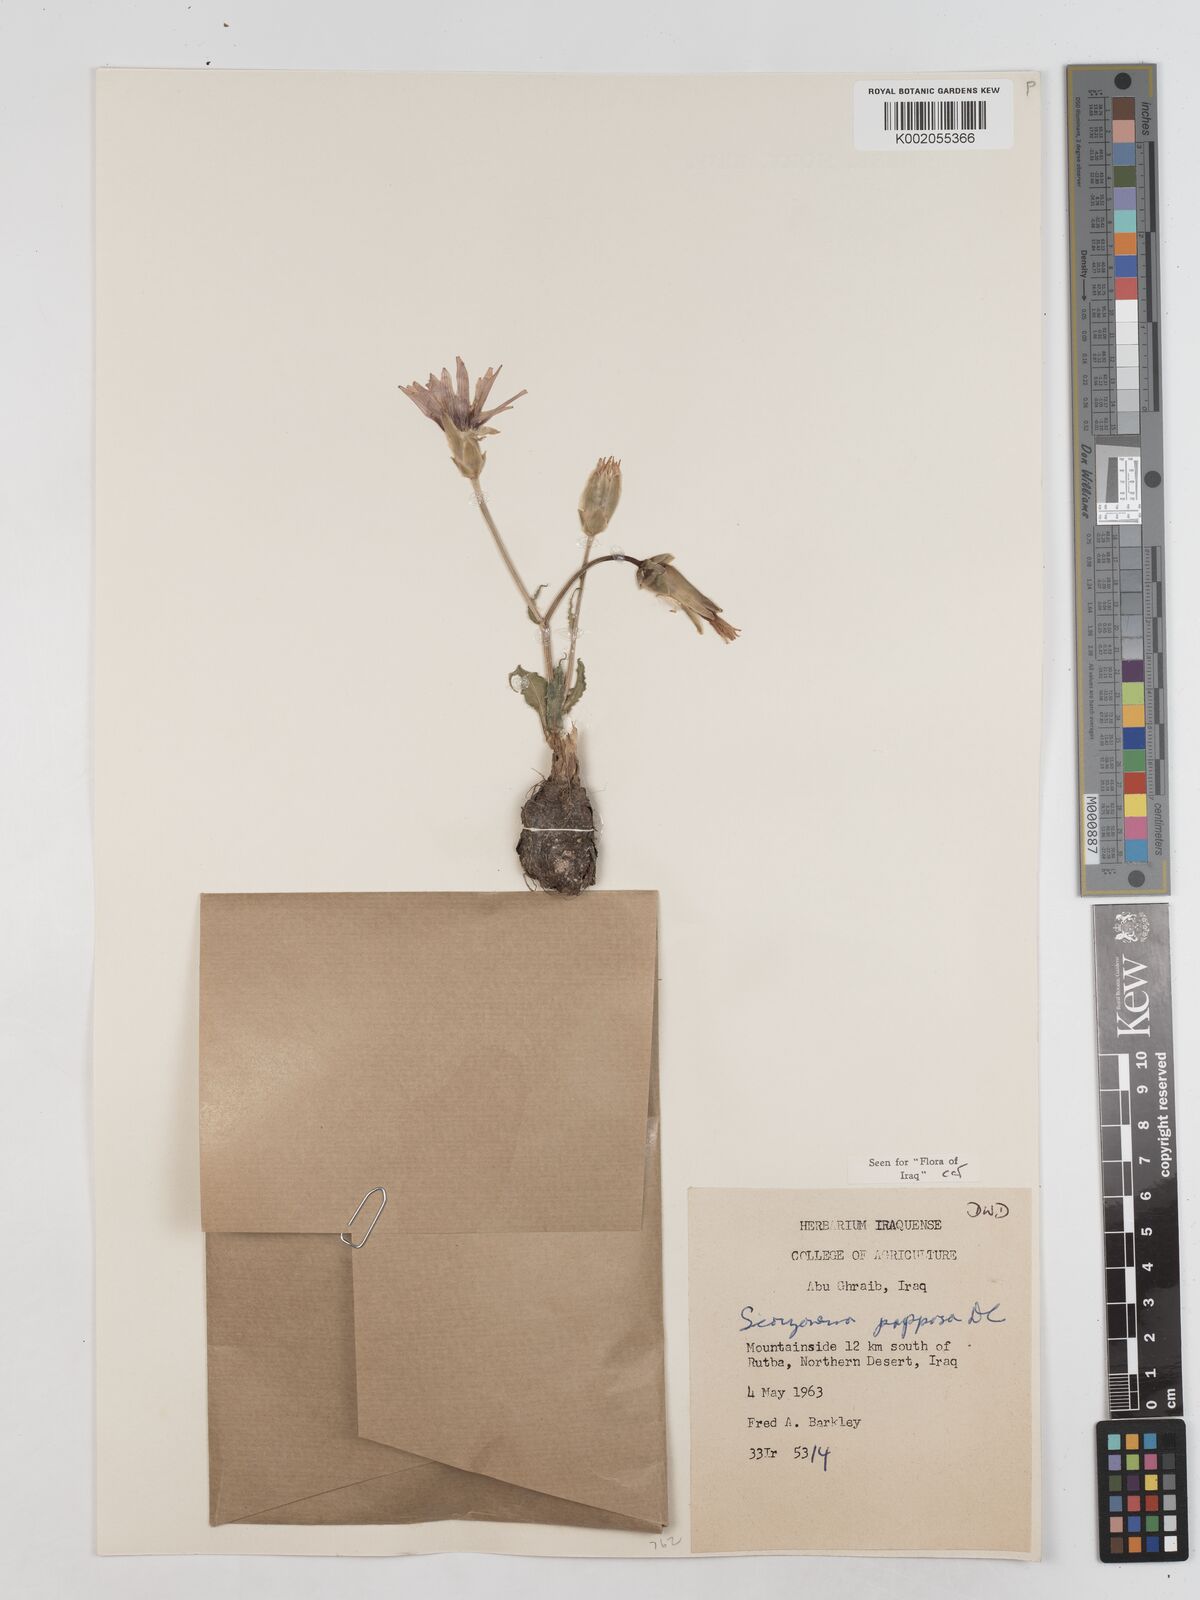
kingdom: Plantae
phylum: Tracheophyta
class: Magnoliopsida
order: Asterales
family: Asteraceae
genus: Pseudopodospermum
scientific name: Pseudopodospermum papposum
